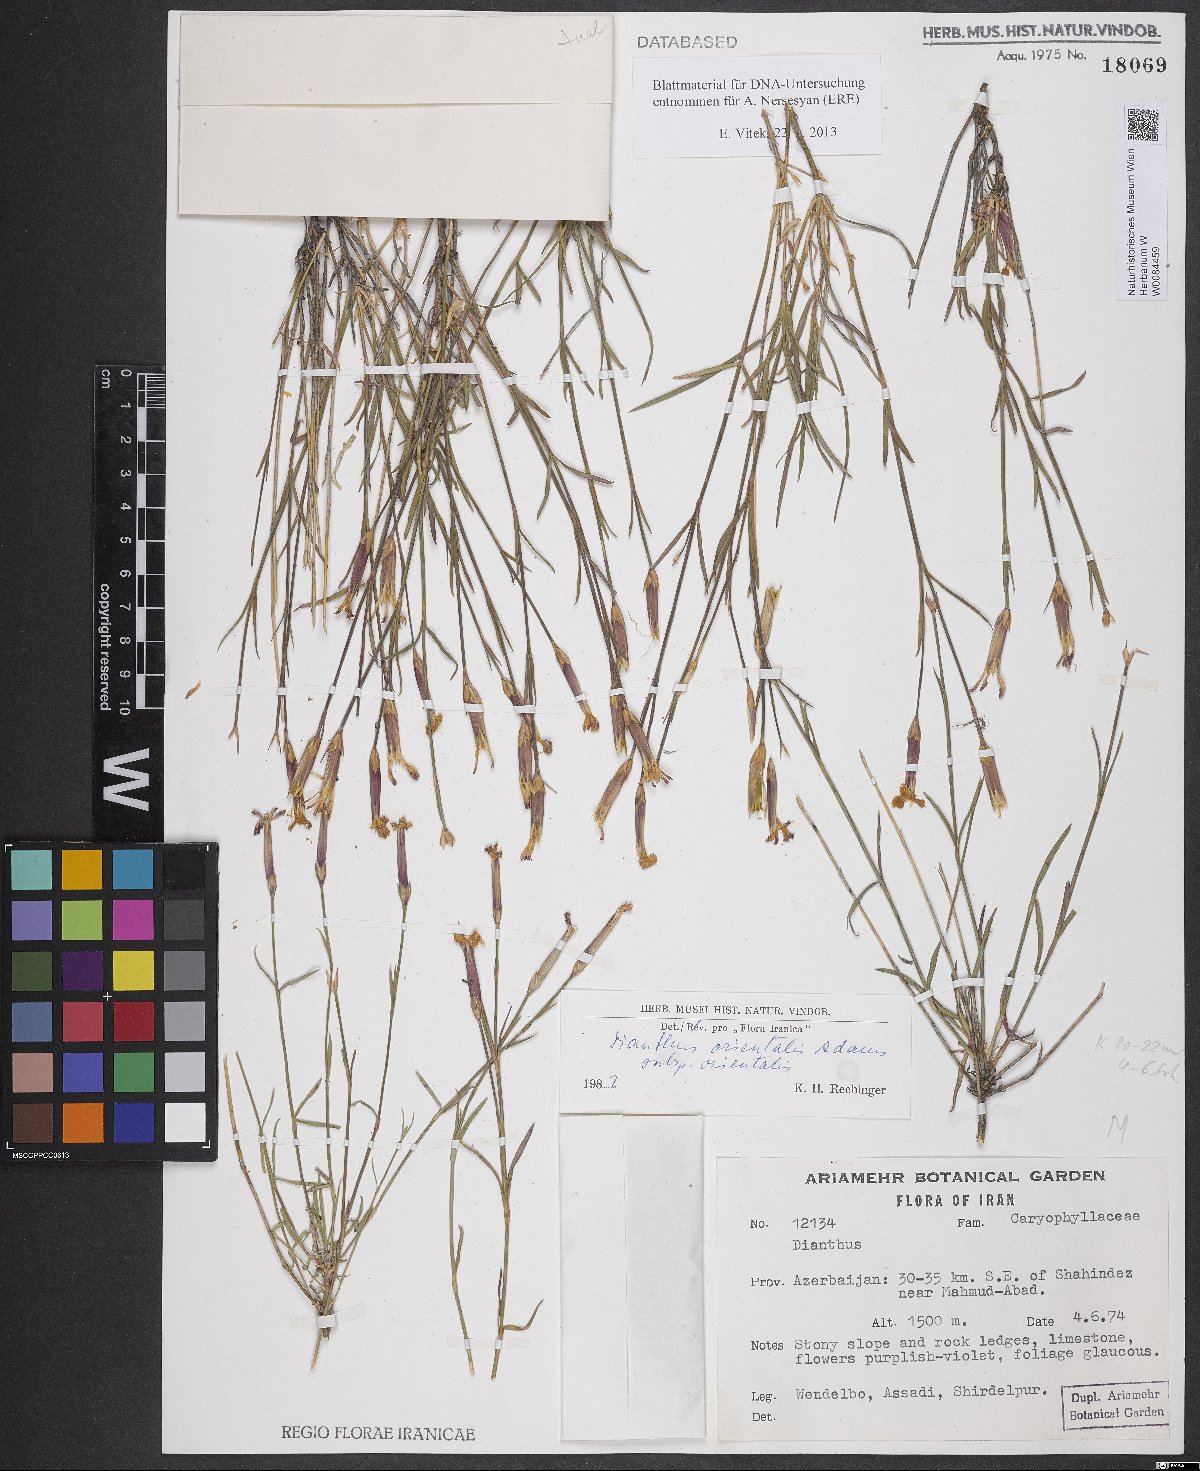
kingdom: Plantae
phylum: Tracheophyta
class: Magnoliopsida
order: Caryophyllales
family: Caryophyllaceae
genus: Dianthus
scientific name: Dianthus orientalis
